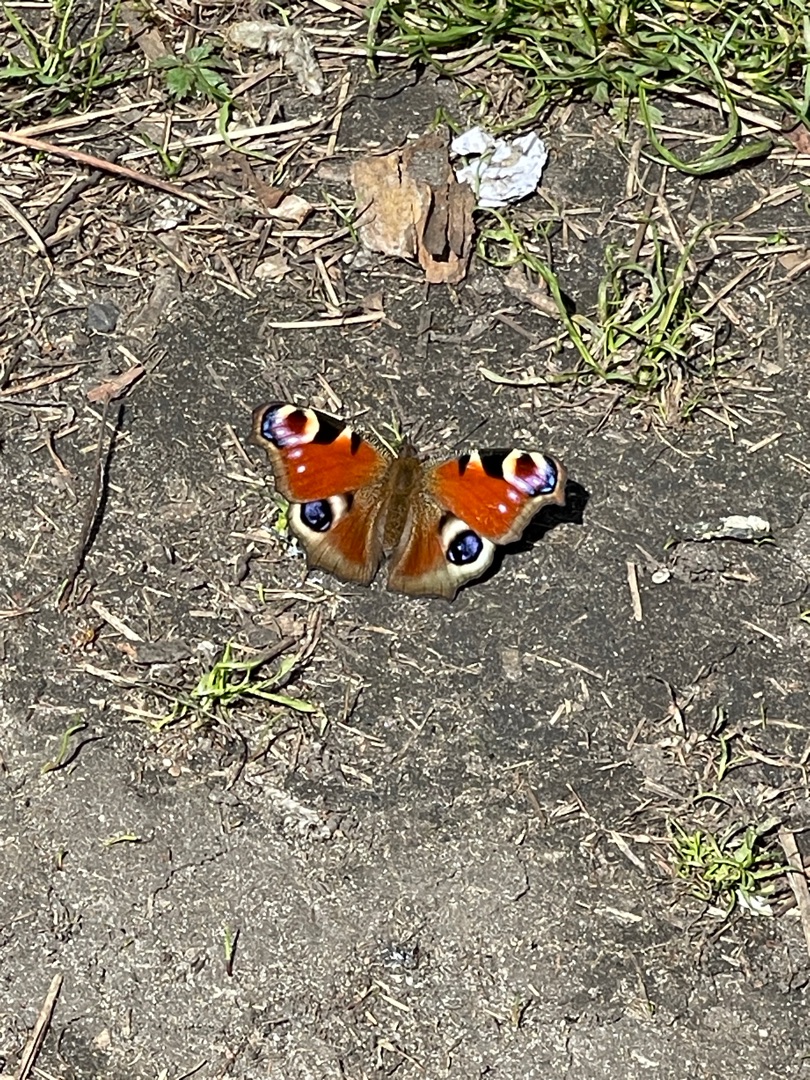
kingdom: Animalia
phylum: Arthropoda
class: Insecta
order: Lepidoptera
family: Nymphalidae
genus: Aglais
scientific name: Aglais io
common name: Dagpåfugleøje
